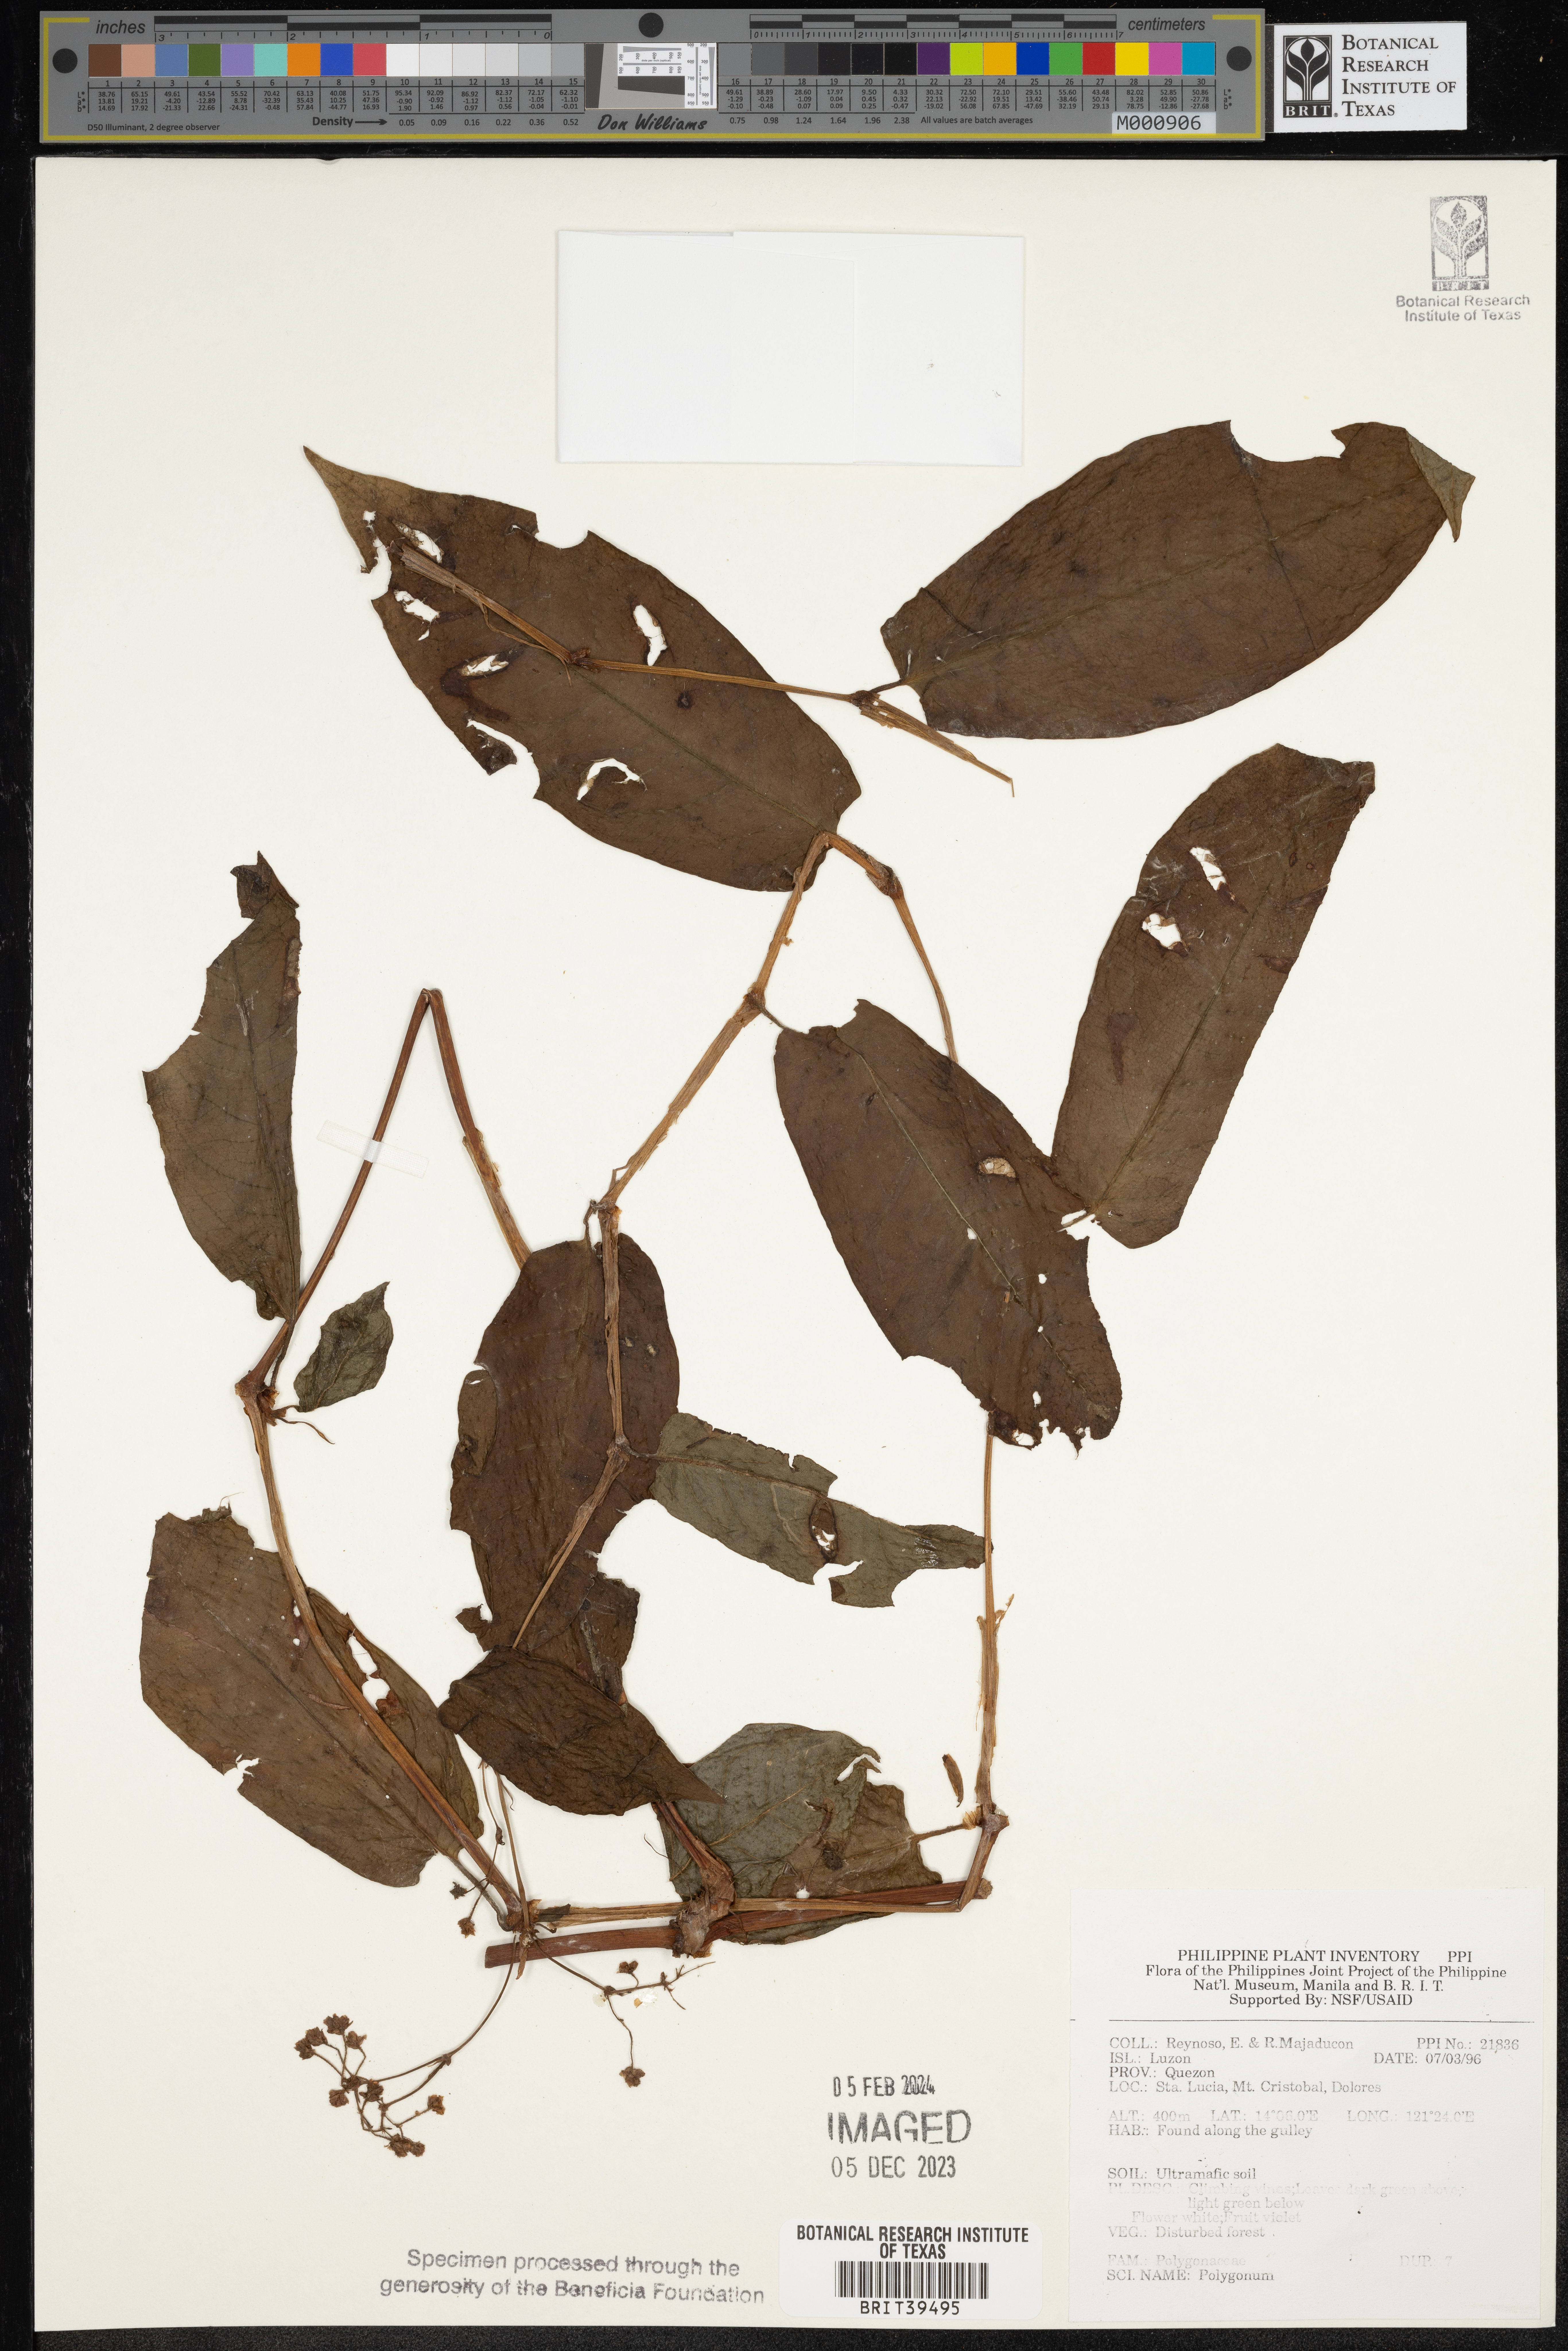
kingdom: Plantae
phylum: Tracheophyta
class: Magnoliopsida
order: Caryophyllales
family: Polygonaceae
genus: Polygonum
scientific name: Polygonum
